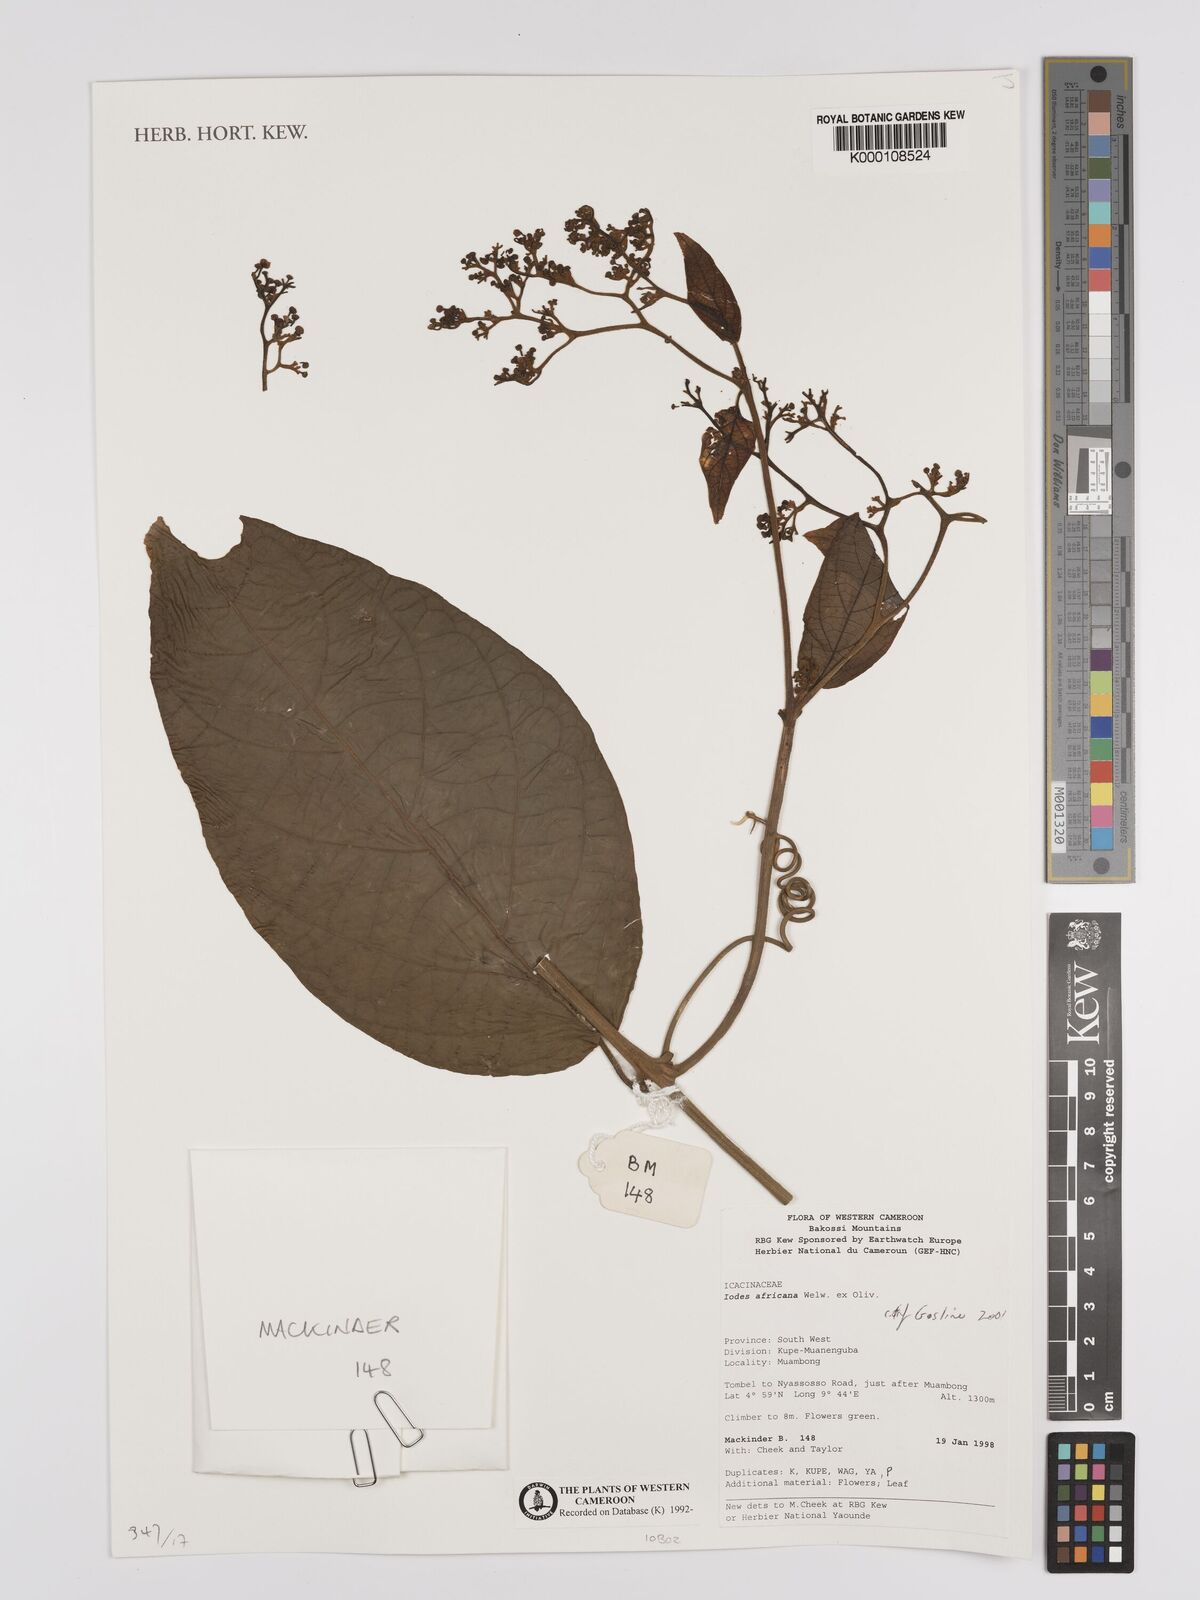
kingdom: Plantae
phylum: Tracheophyta
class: Magnoliopsida
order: Icacinales
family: Icacinaceae
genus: Iodes
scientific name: Iodes africana
